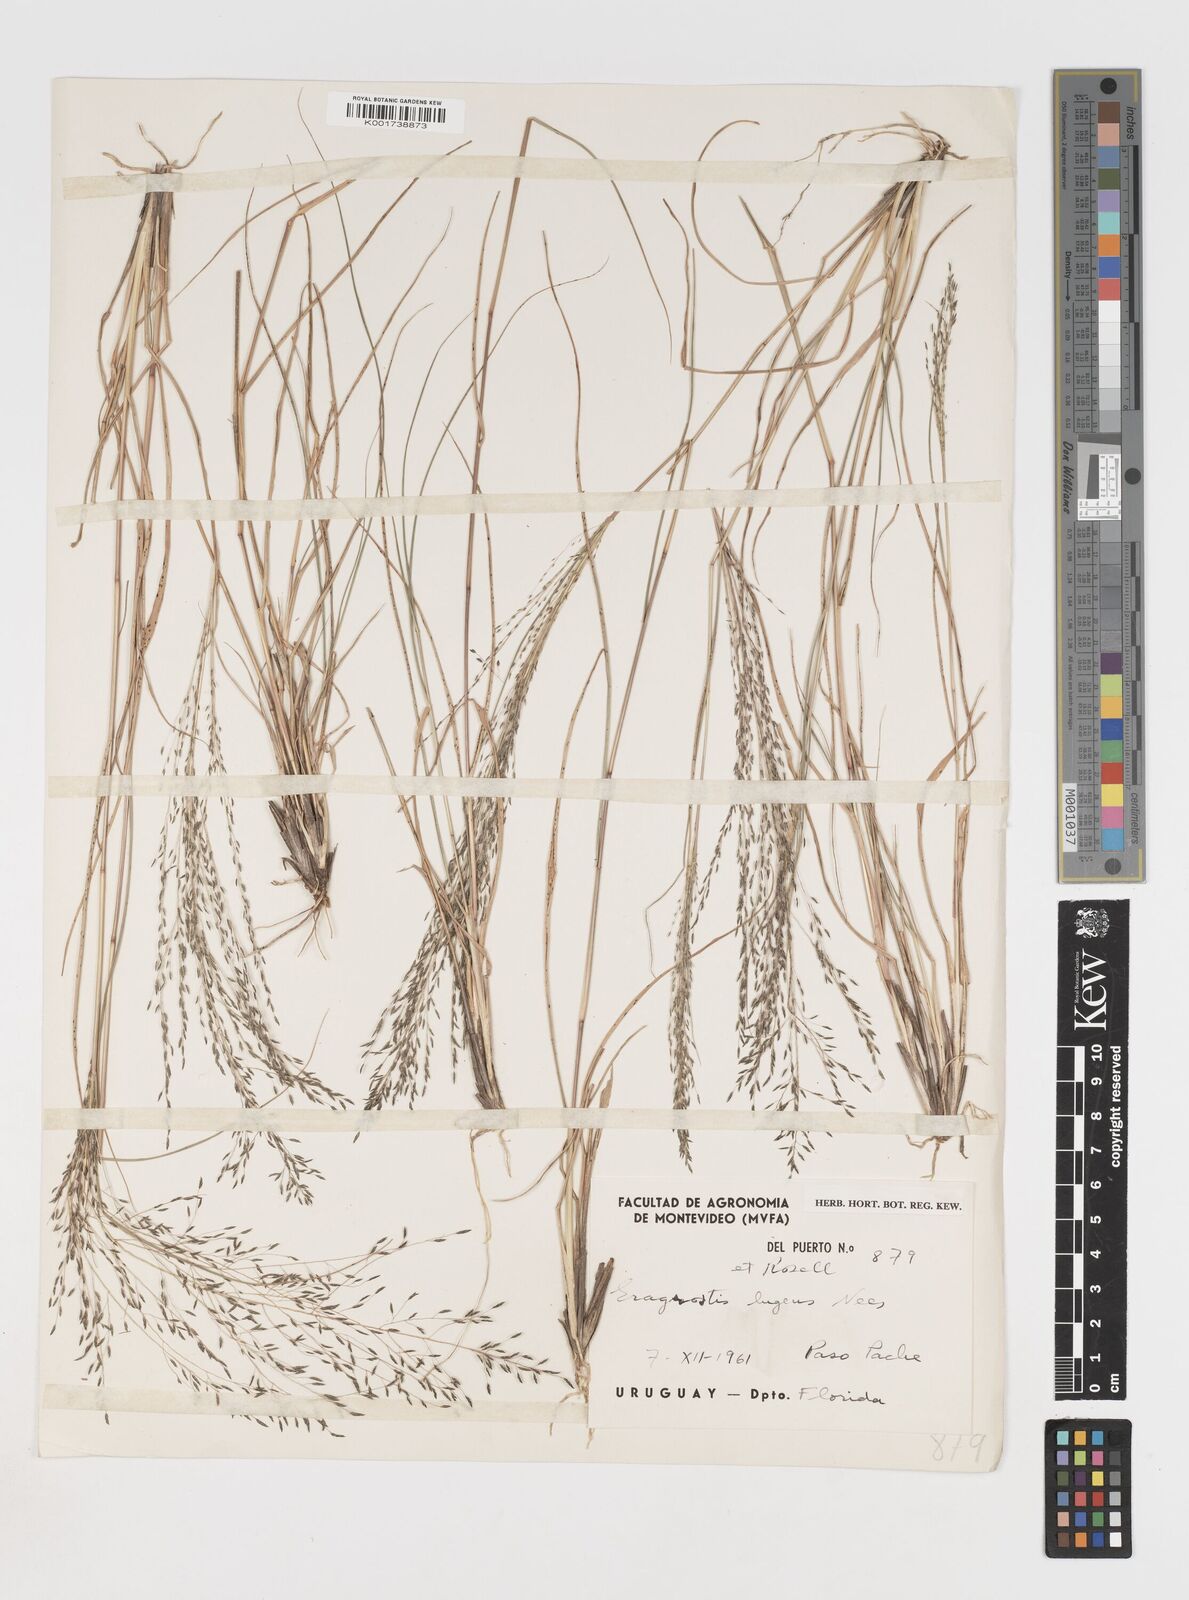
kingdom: Plantae
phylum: Tracheophyta
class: Liliopsida
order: Poales
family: Poaceae
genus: Eragrostis
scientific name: Eragrostis
